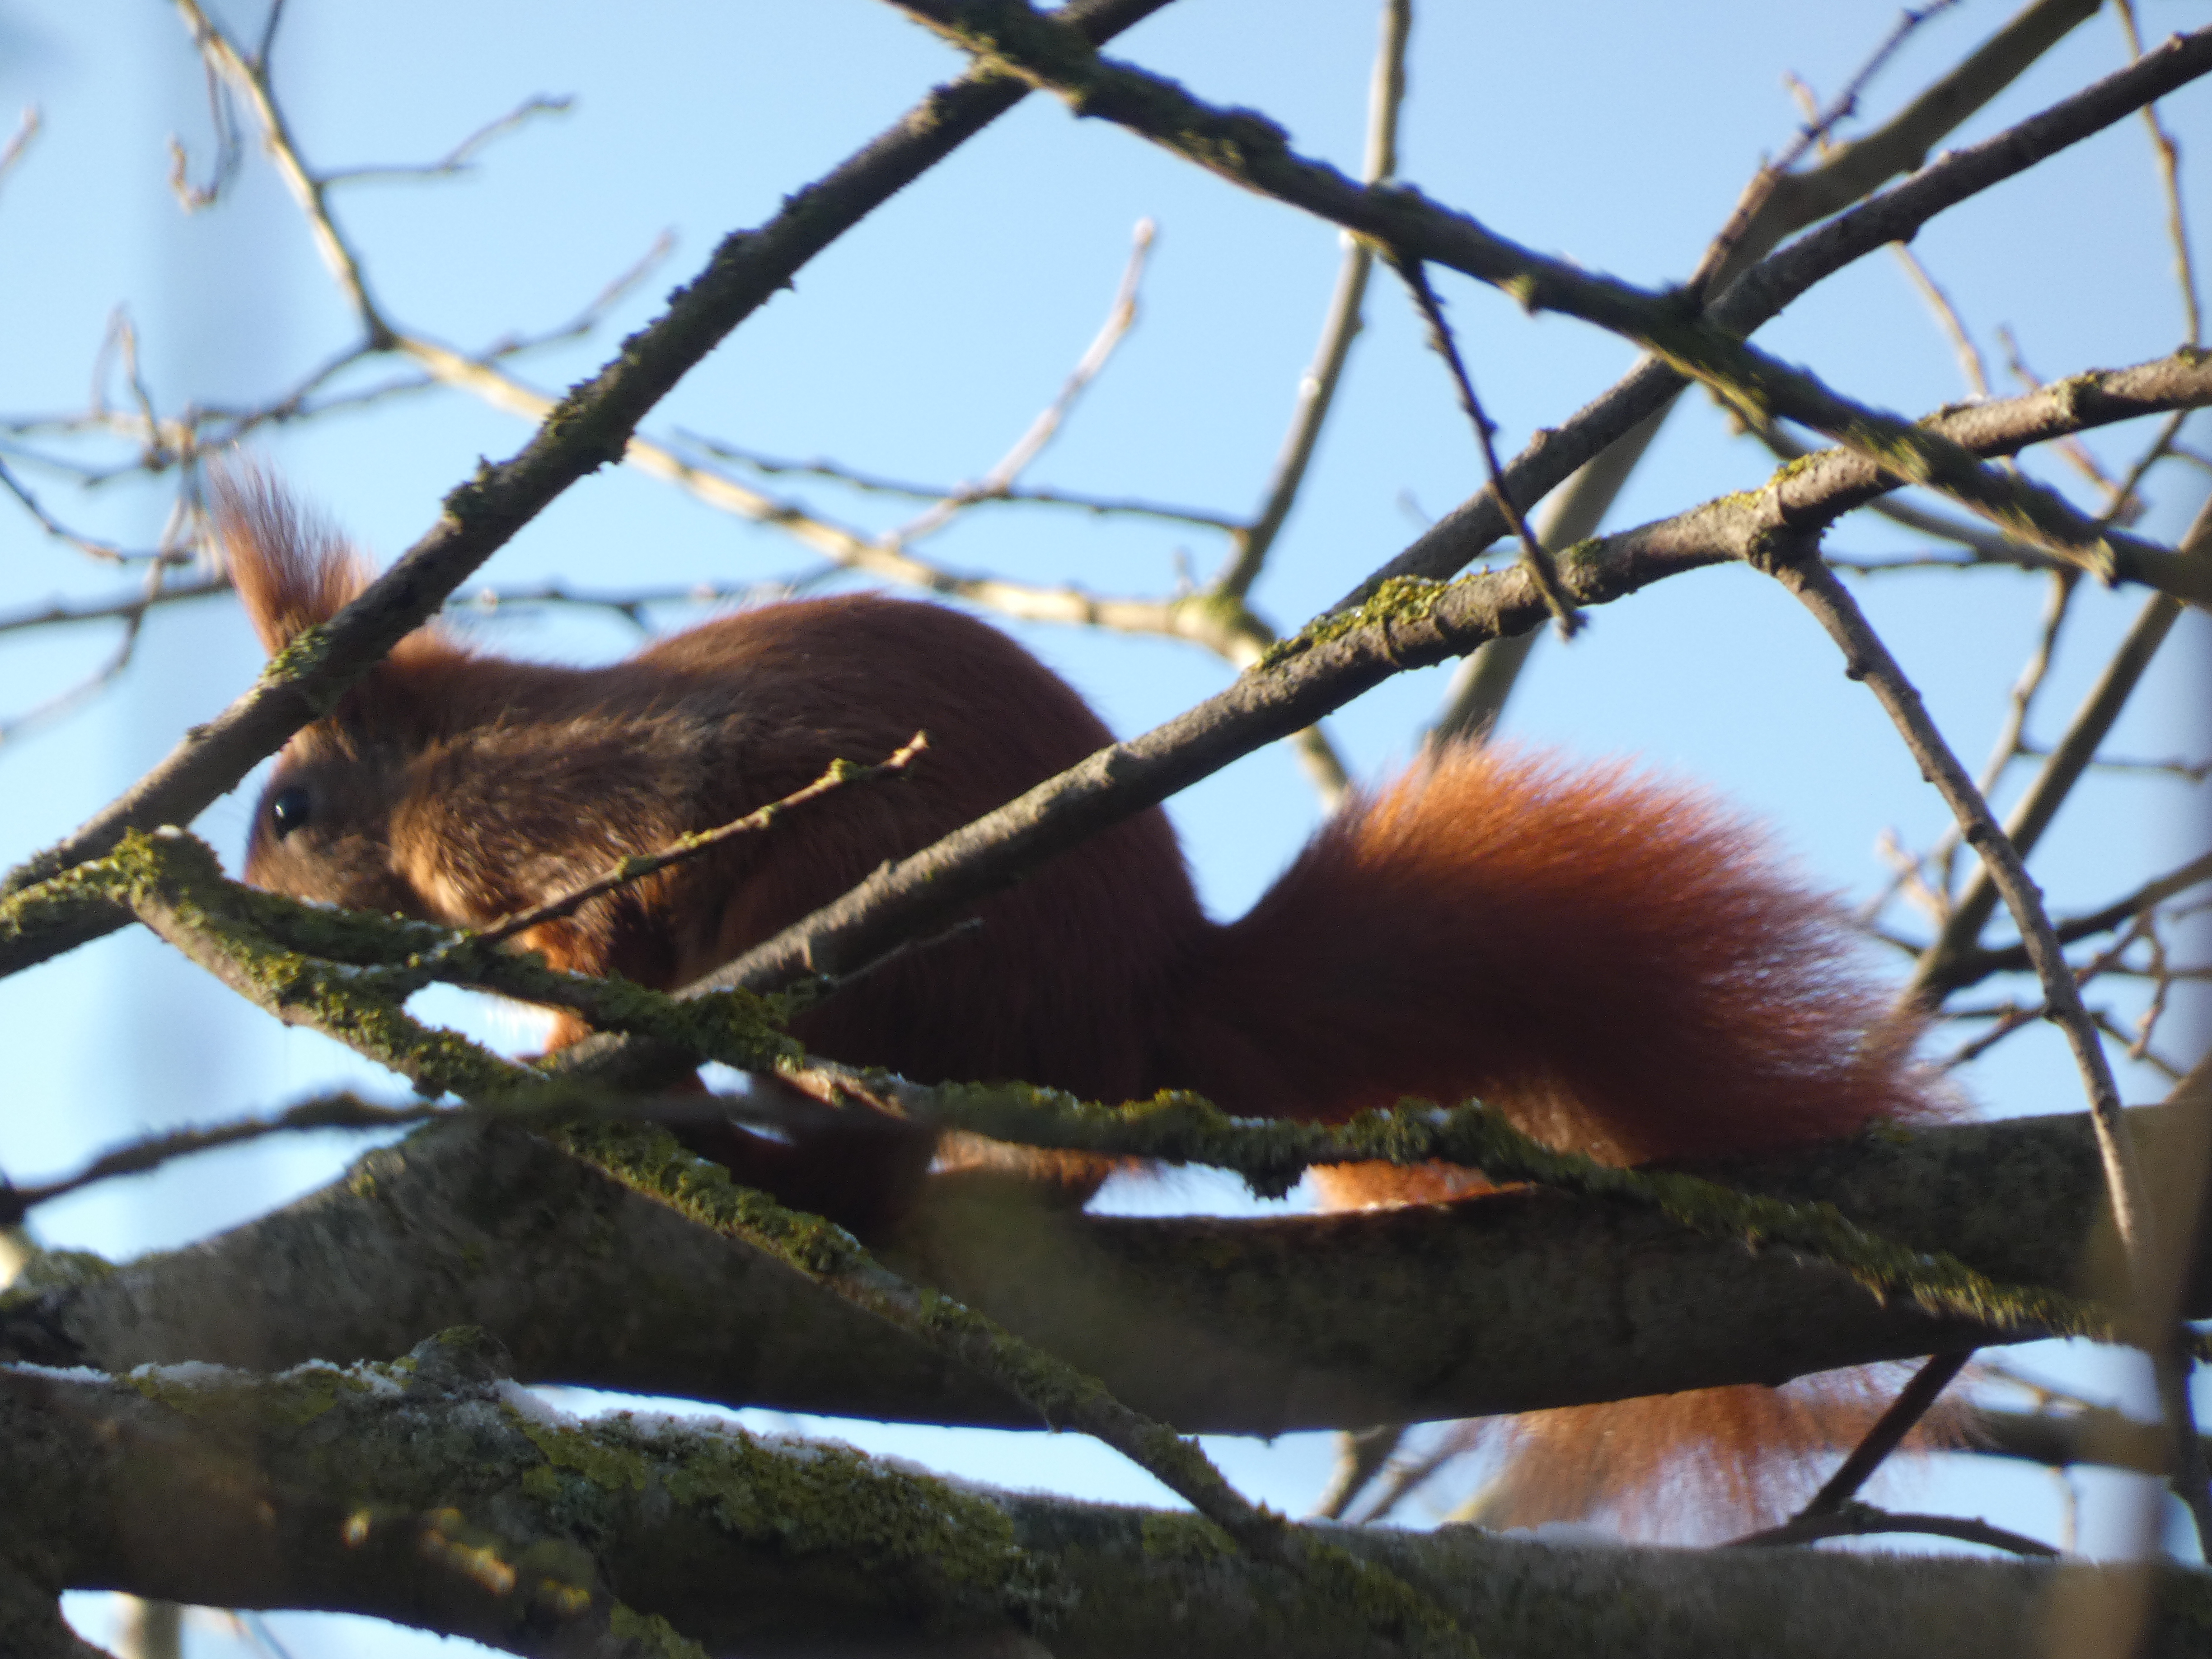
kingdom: Animalia
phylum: Chordata
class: Mammalia
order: Rodentia
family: Sciuridae
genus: Sciurus
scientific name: Sciurus vulgaris
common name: Egern
